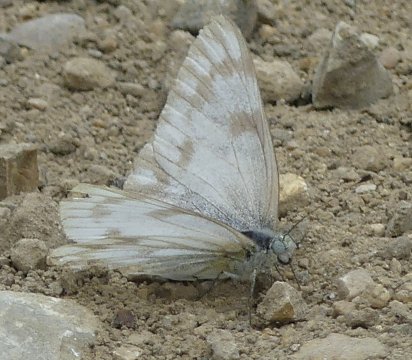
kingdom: Animalia
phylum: Arthropoda
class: Insecta
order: Lepidoptera
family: Pieridae
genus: Pontia
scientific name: Pontia occidentalis
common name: Western White
